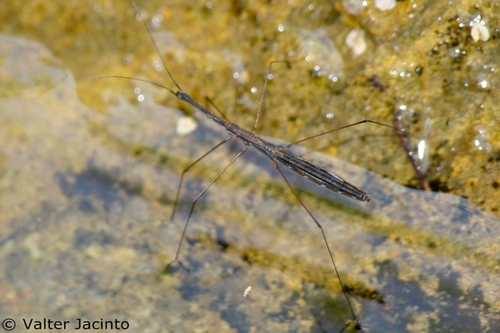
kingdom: Animalia
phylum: Arthropoda
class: Insecta
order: Hemiptera
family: Hydrometridae
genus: Hydrometra
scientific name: Hydrometra stagnorum
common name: Water measurer
